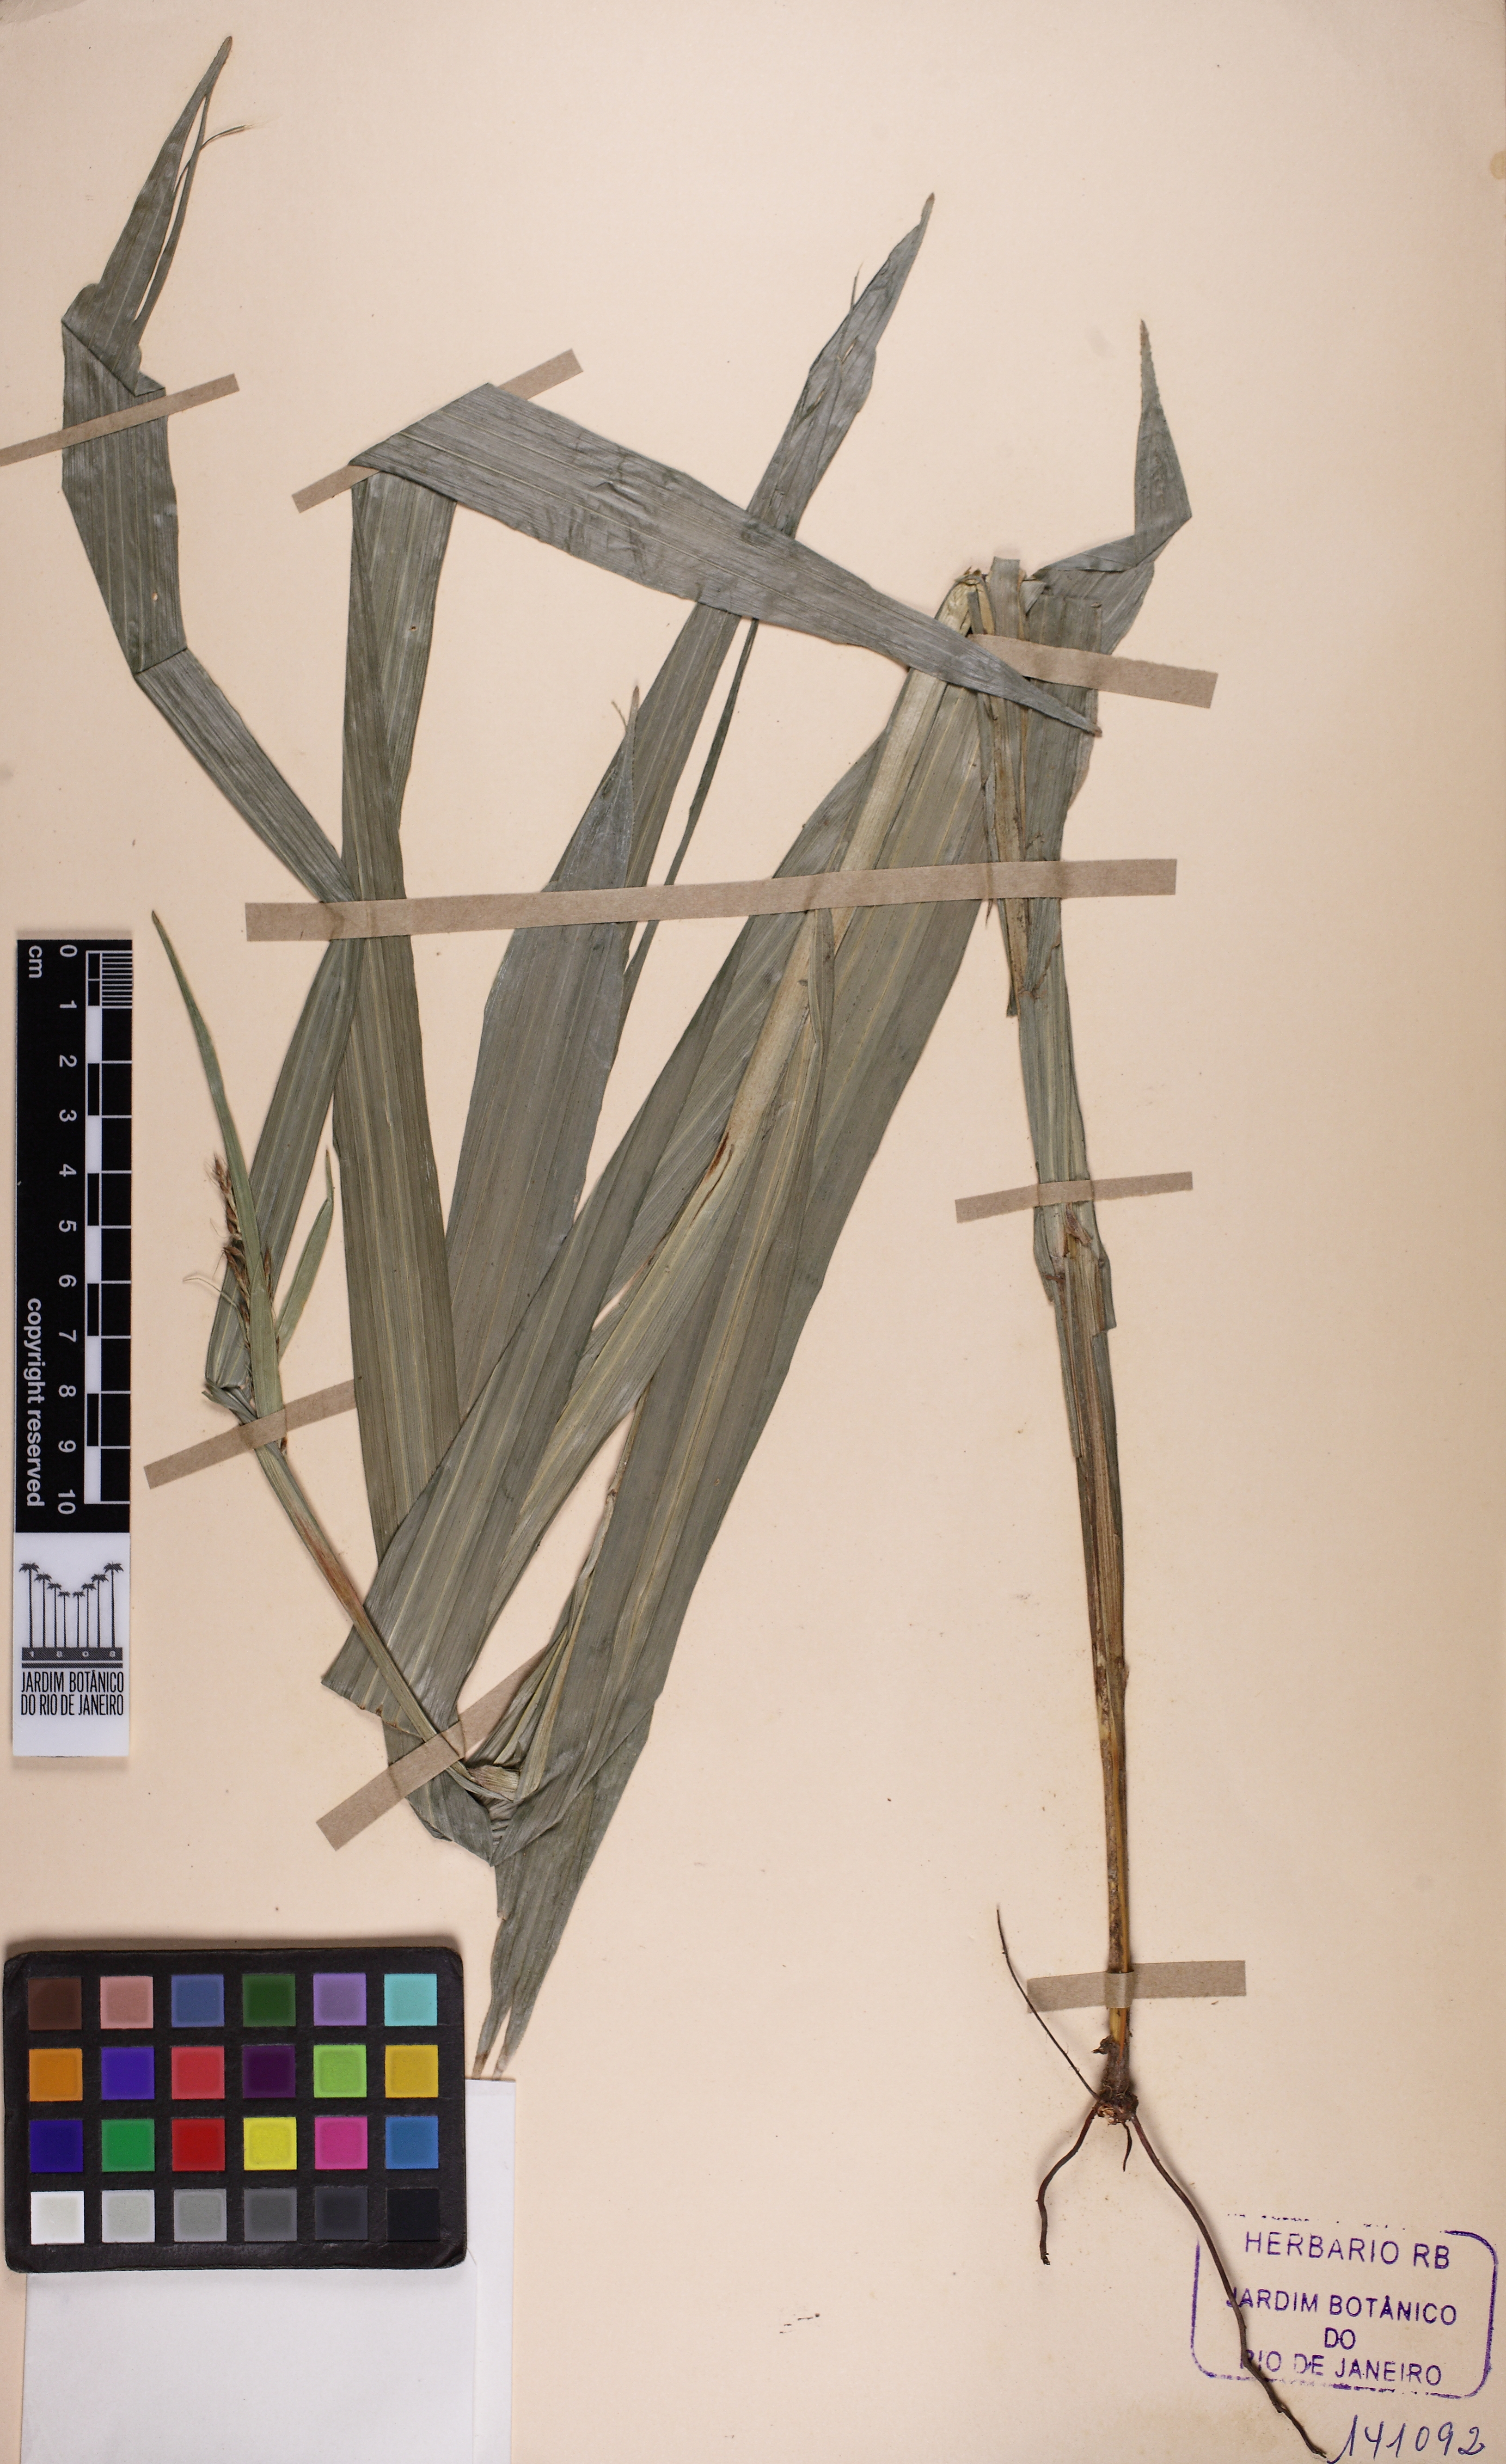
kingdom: Plantae
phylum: Tracheophyta
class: Liliopsida
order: Poales
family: Cyperaceae
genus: Scleria
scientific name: Scleria
